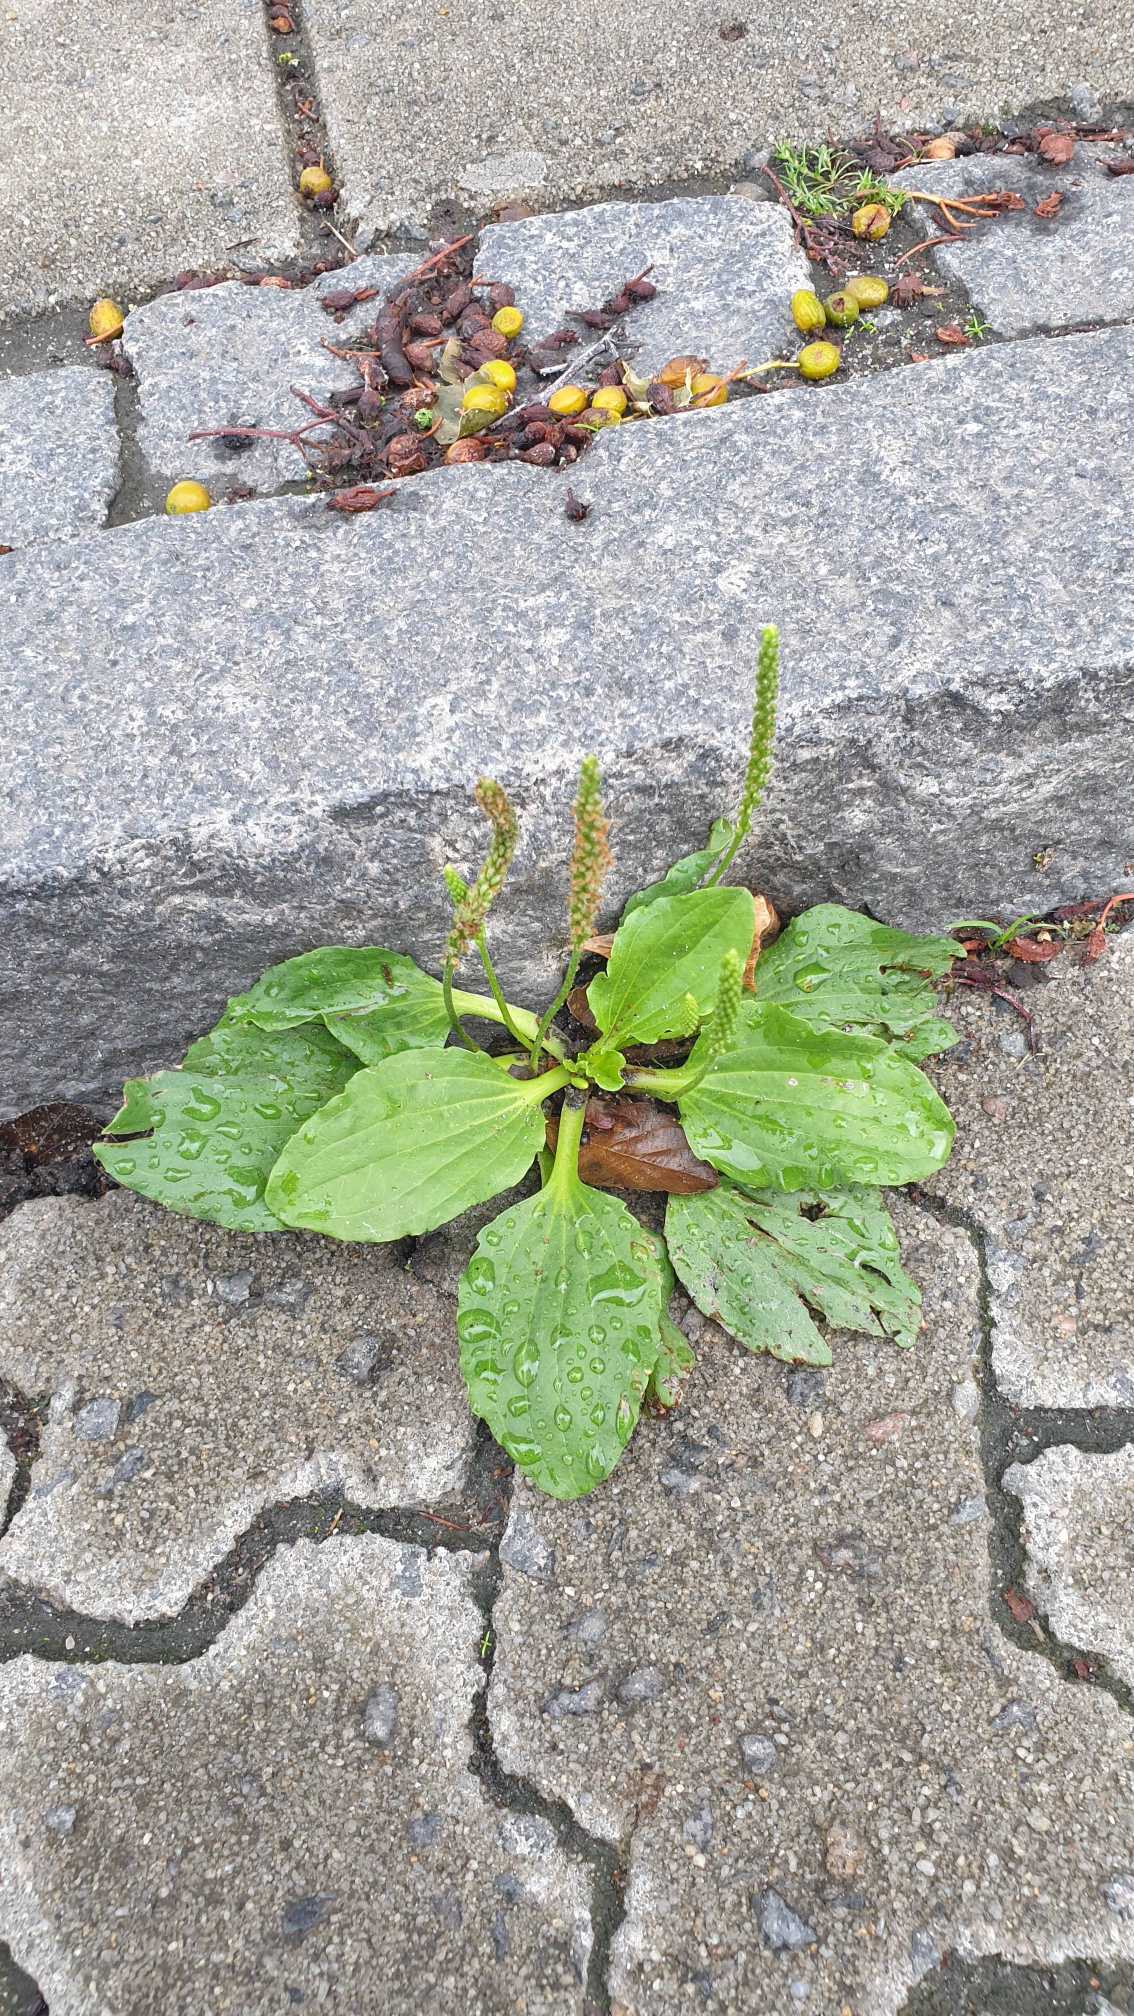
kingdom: Plantae
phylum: Tracheophyta
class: Magnoliopsida
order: Lamiales
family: Plantaginaceae
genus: Plantago
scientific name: Plantago major
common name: Glat vejbred
